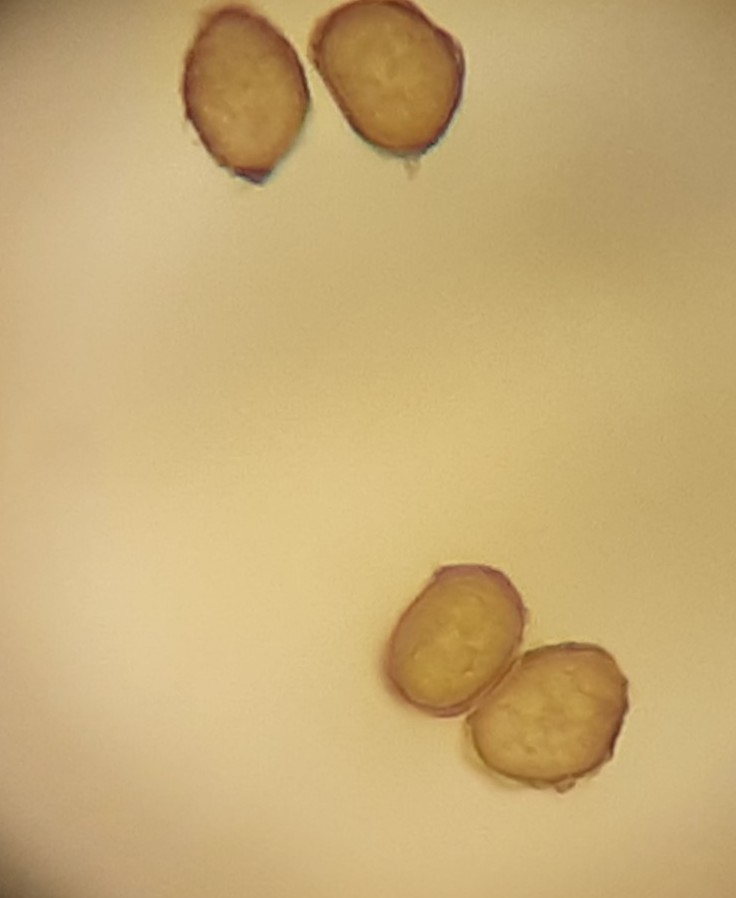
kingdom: Fungi
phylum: Basidiomycota
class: Ustilaginomycetes
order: Urocystidales
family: Urocystidaceae
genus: Vankya
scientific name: Vankya ornithogali
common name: Yellow star-of-bethlehem smut
